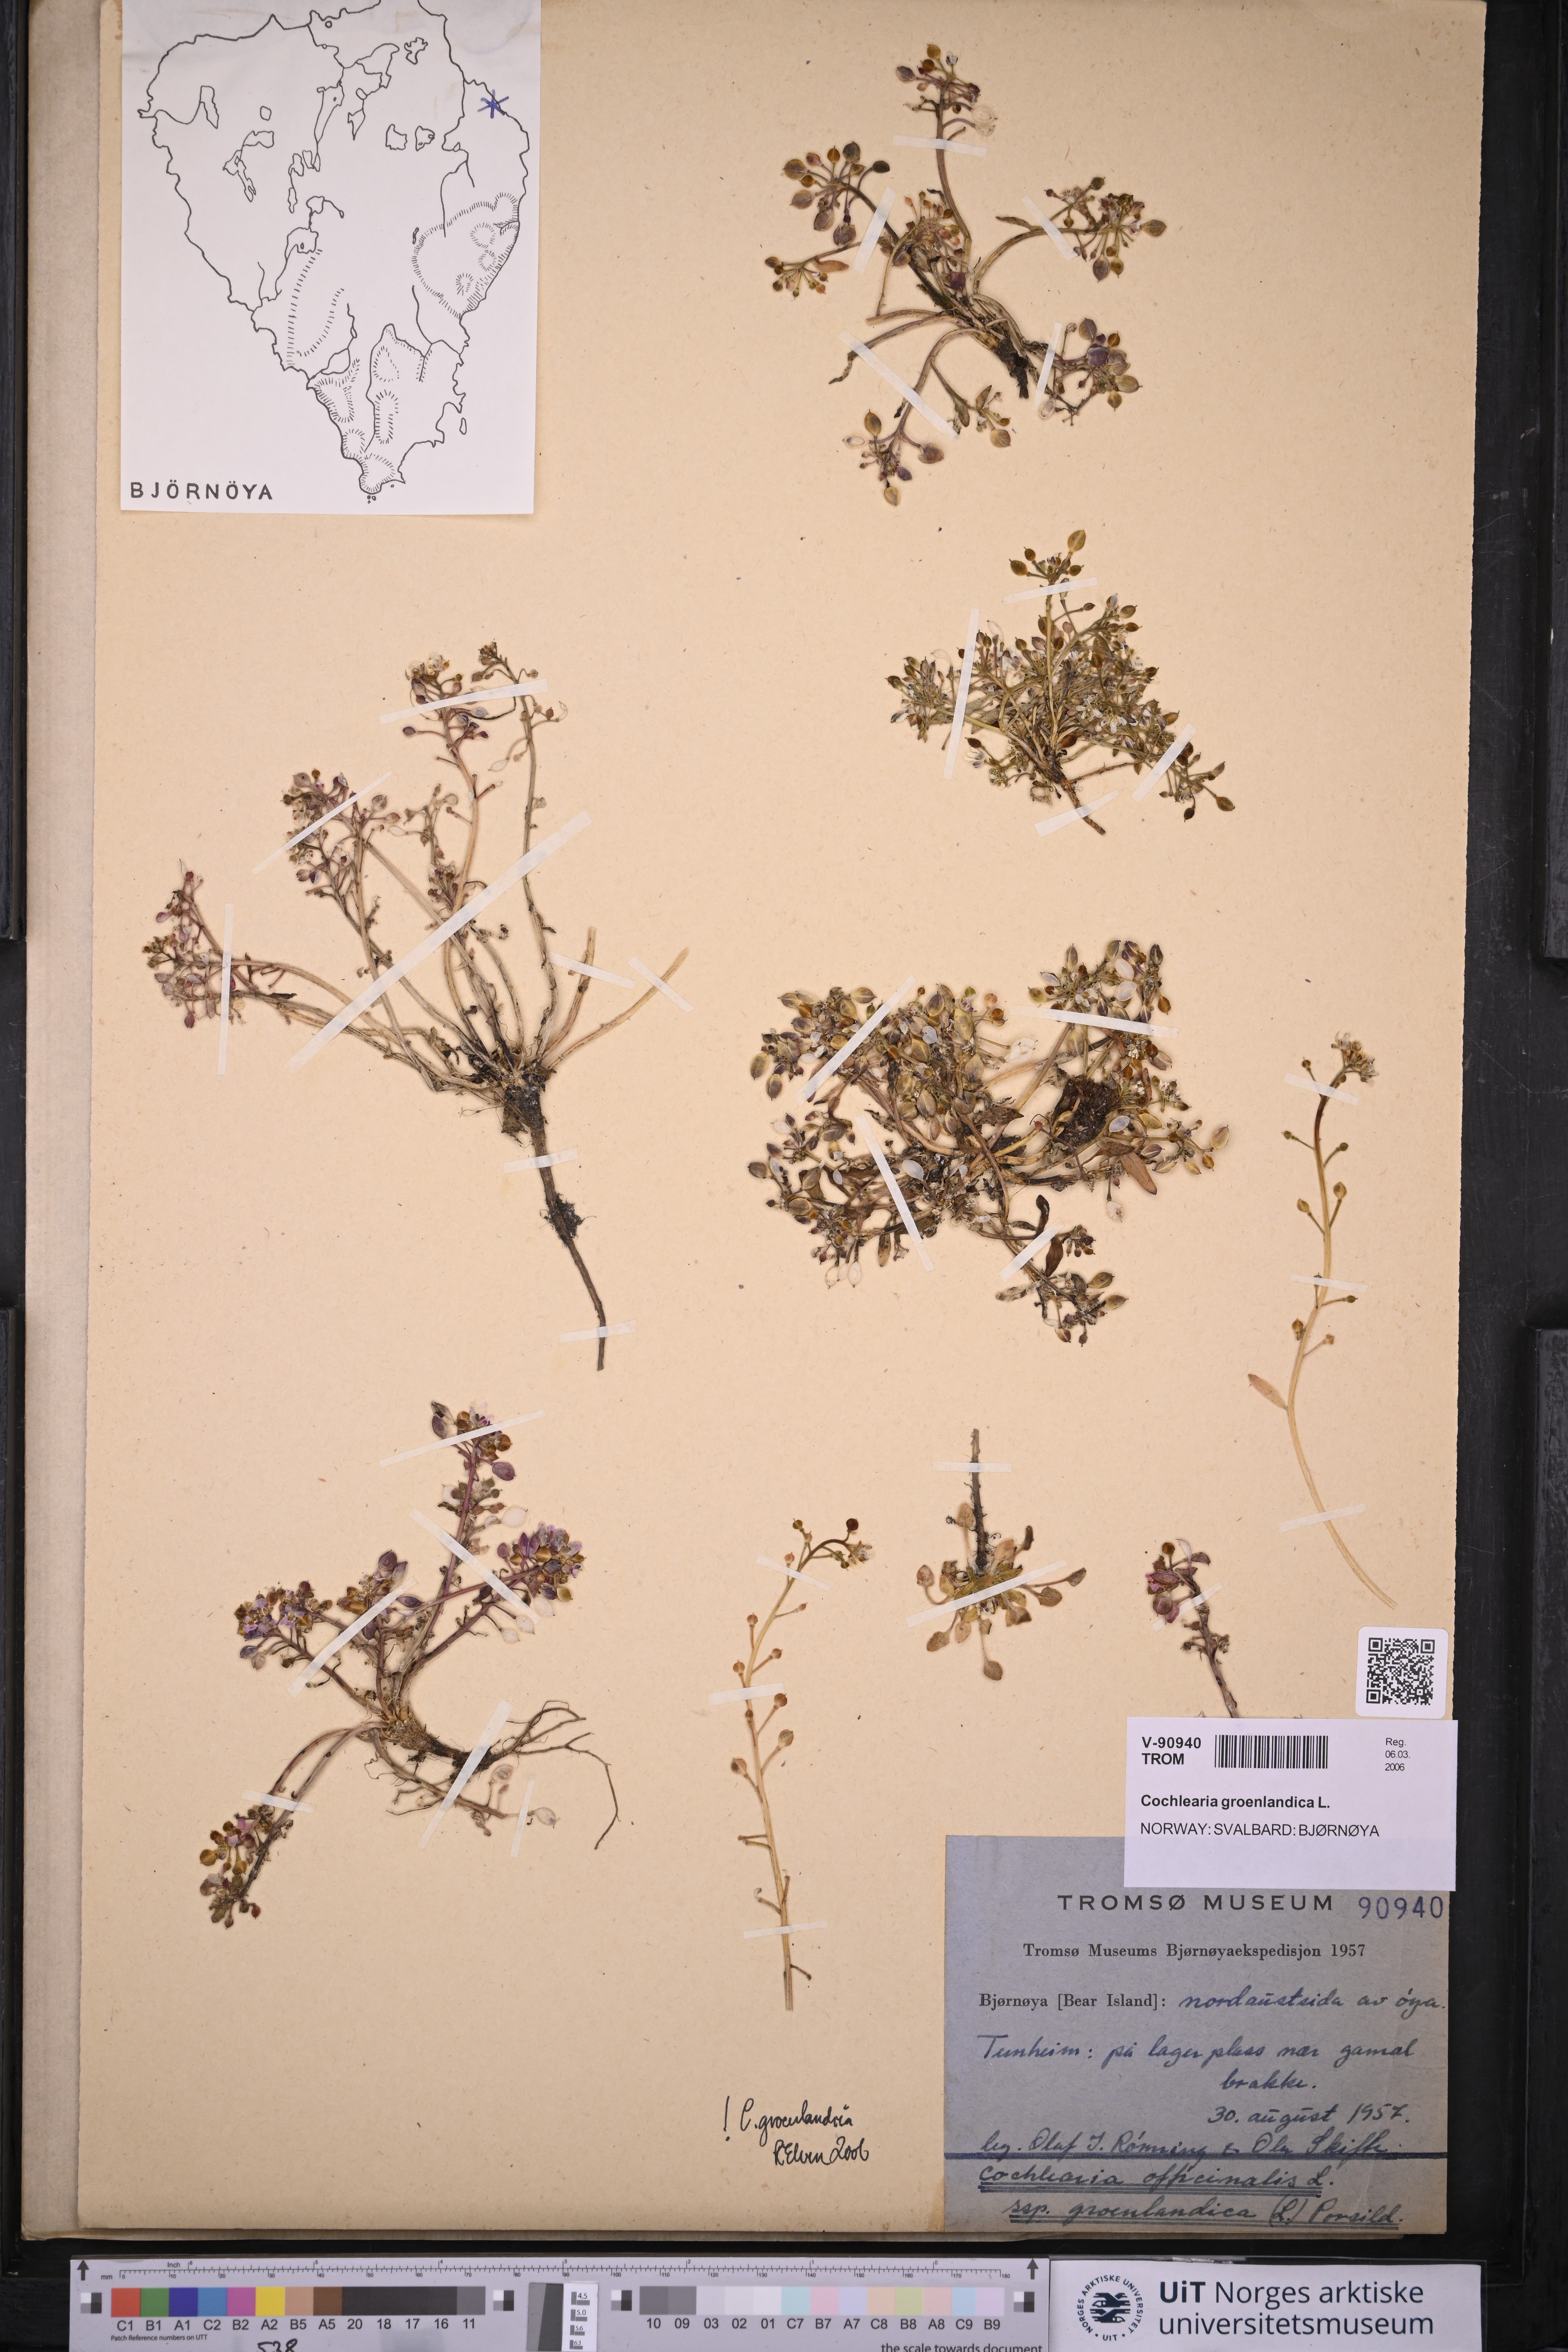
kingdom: Plantae
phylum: Tracheophyta
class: Magnoliopsida
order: Brassicales
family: Brassicaceae
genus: Cochlearia
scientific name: Cochlearia groenlandica
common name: Danish scurvygrass
